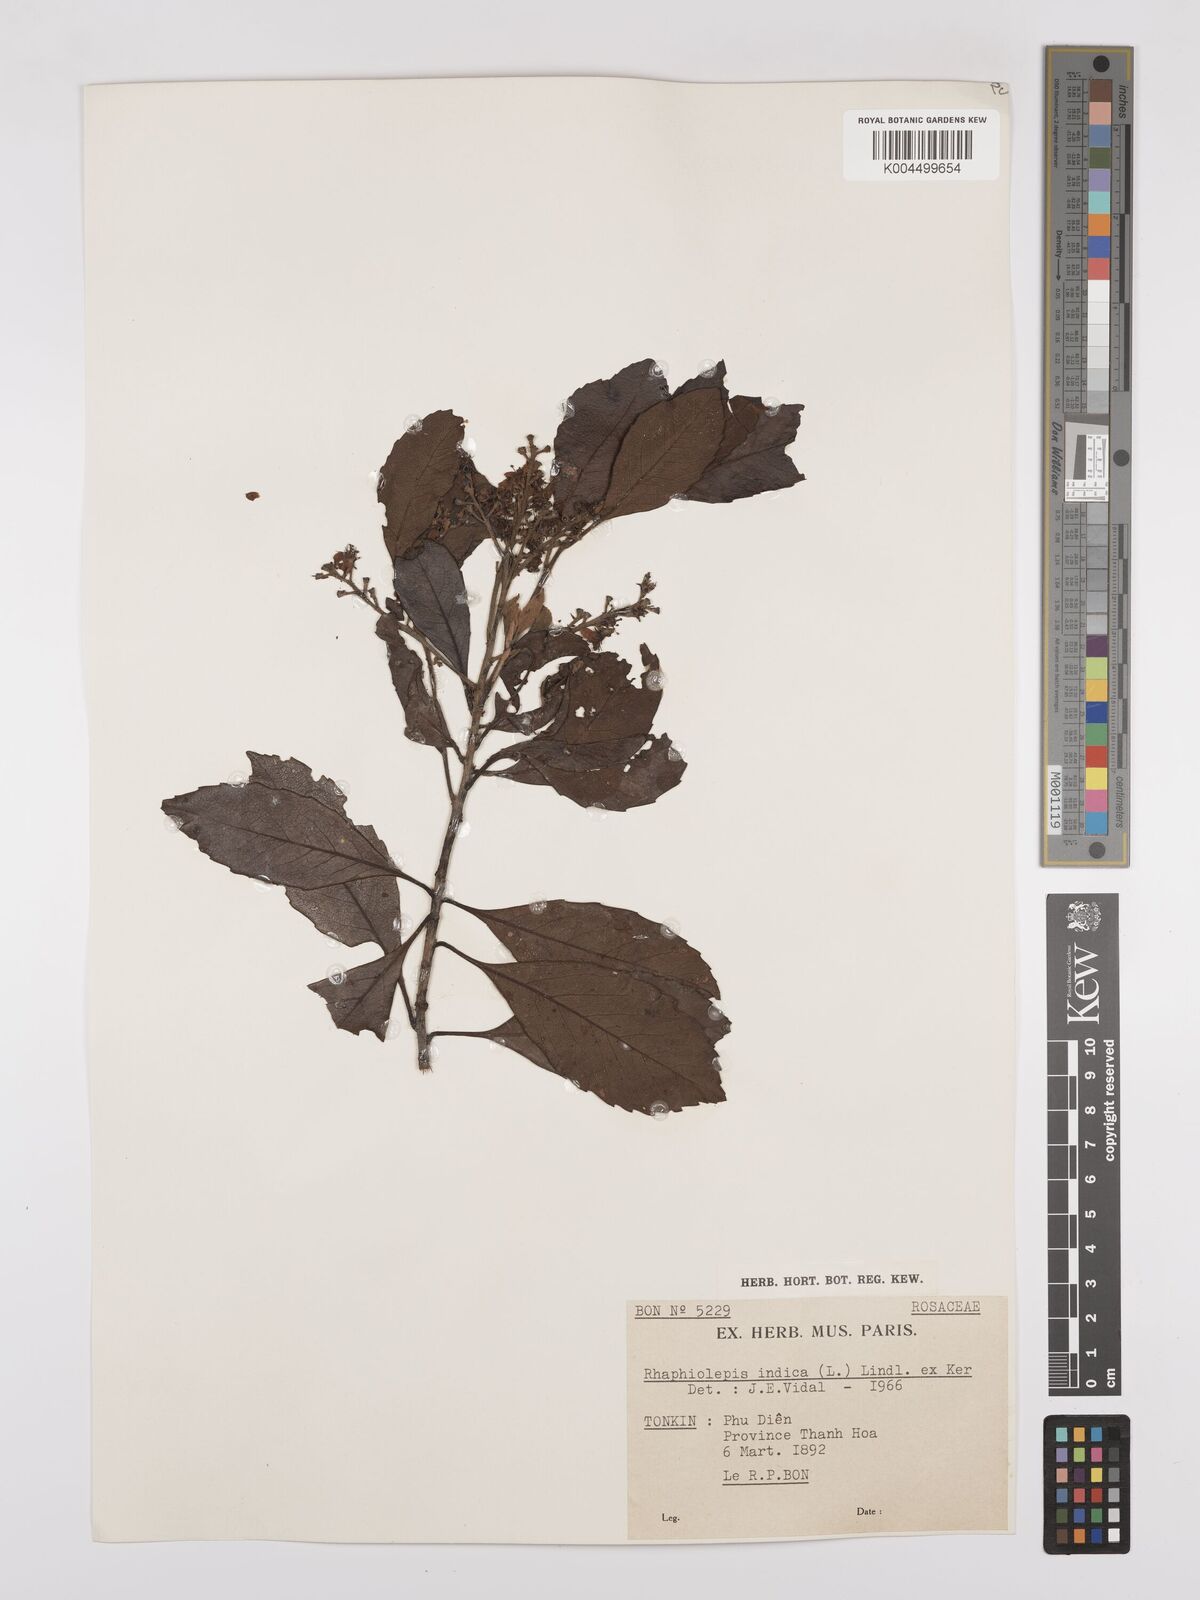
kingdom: Plantae
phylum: Tracheophyta
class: Magnoliopsida
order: Rosales
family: Rosaceae
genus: Rhaphiolepis
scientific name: Rhaphiolepis indica
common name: India-hawthorn
